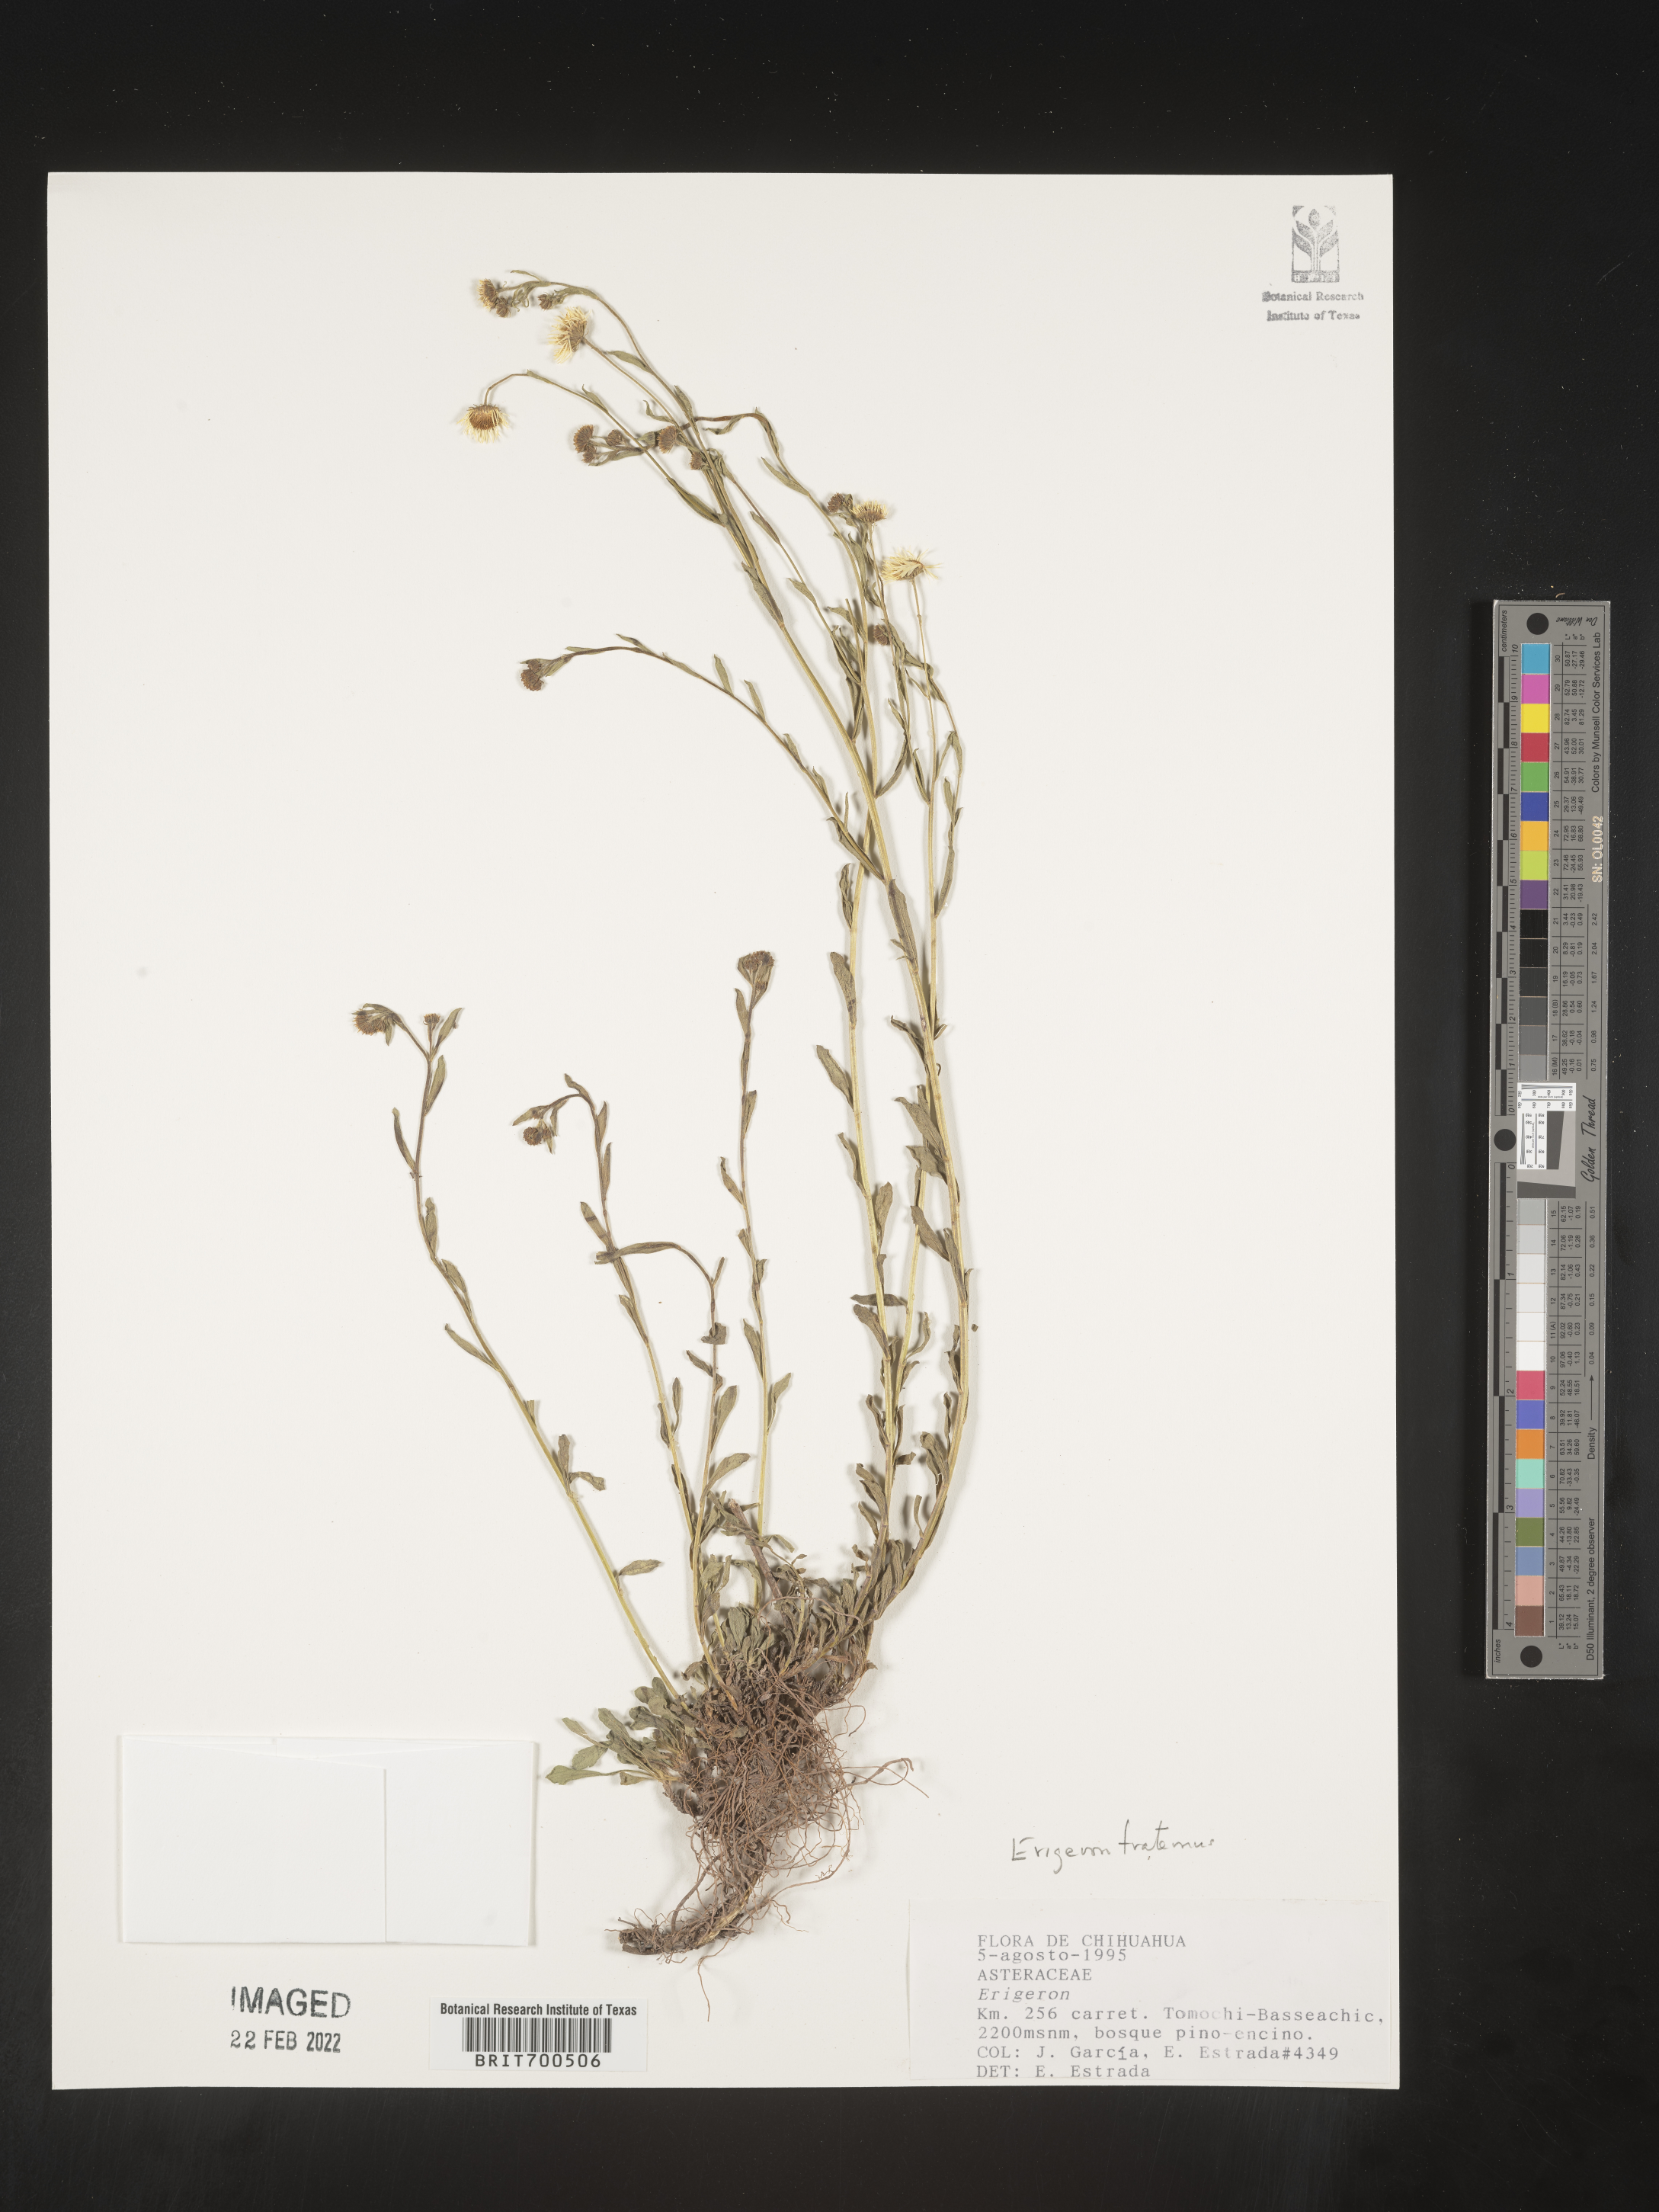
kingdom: Plantae
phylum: Tracheophyta
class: Magnoliopsida
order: Asterales
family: Asteraceae
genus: Erigeron
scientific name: Erigeron
